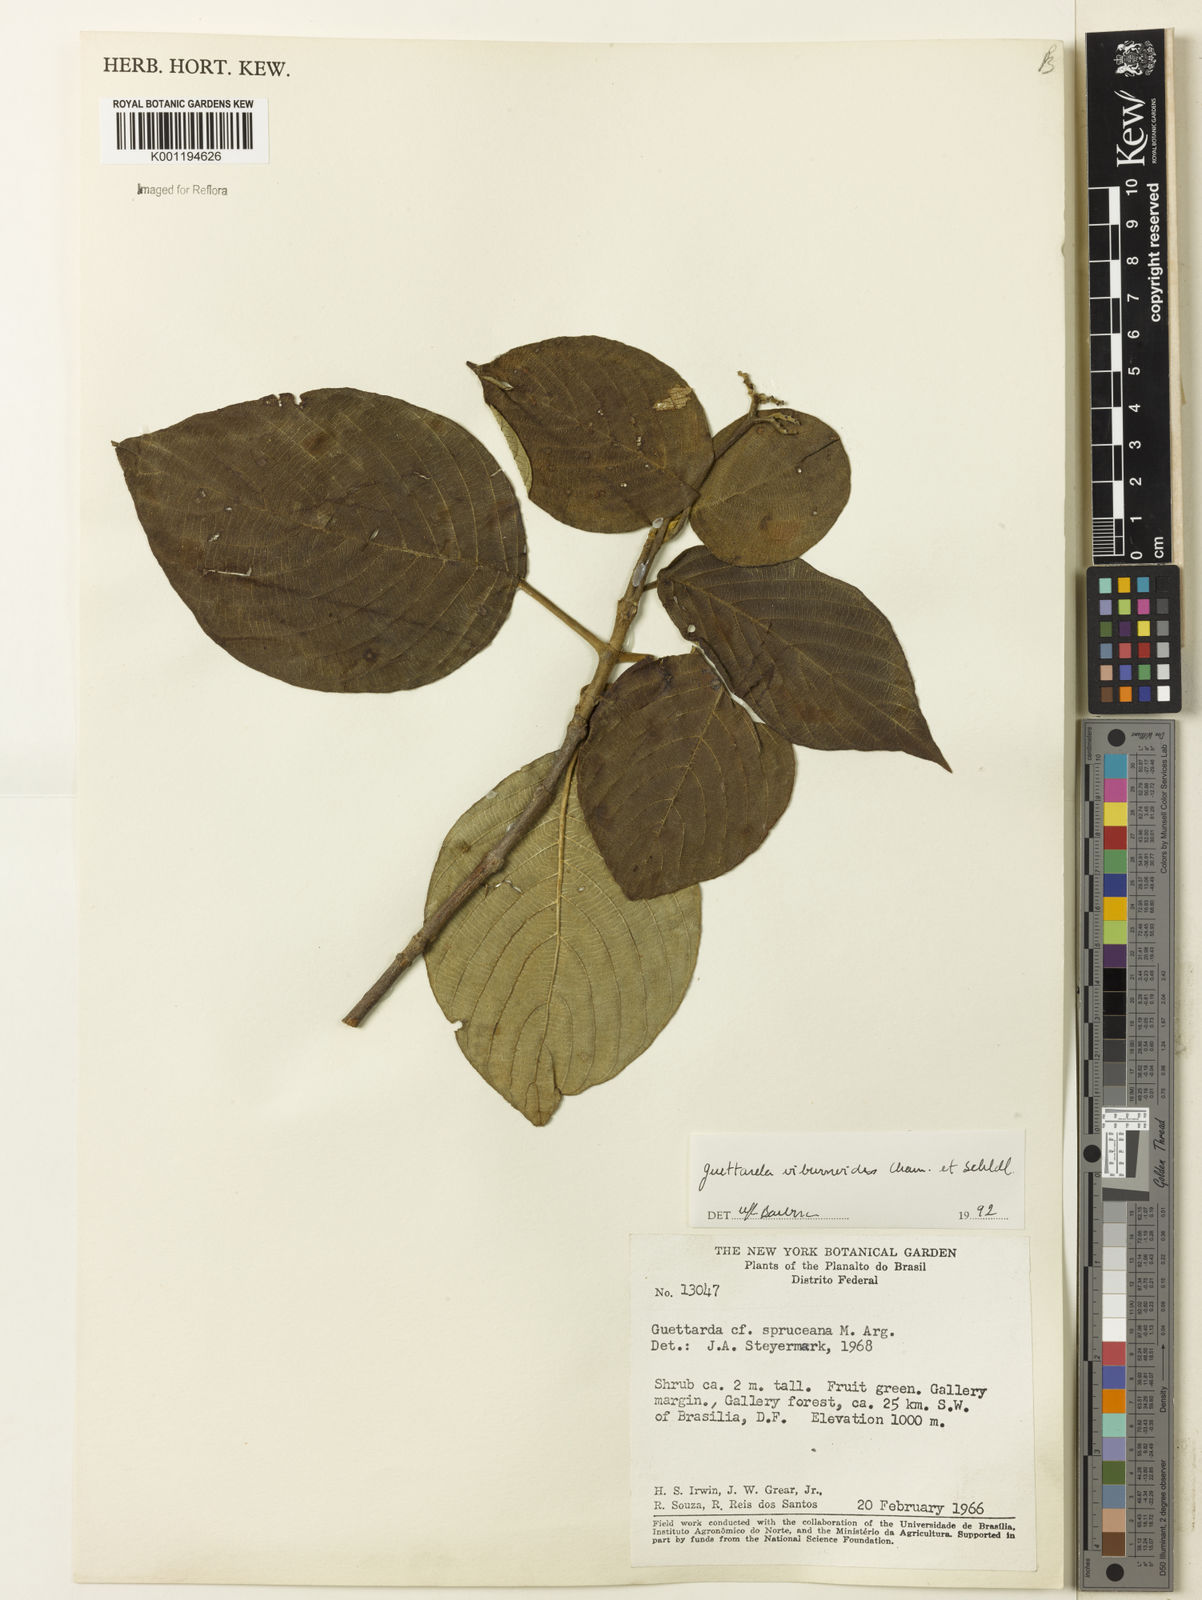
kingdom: Plantae
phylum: Tracheophyta
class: Magnoliopsida
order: Gentianales
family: Rubiaceae
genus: Guettarda
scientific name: Guettarda viburnoides
